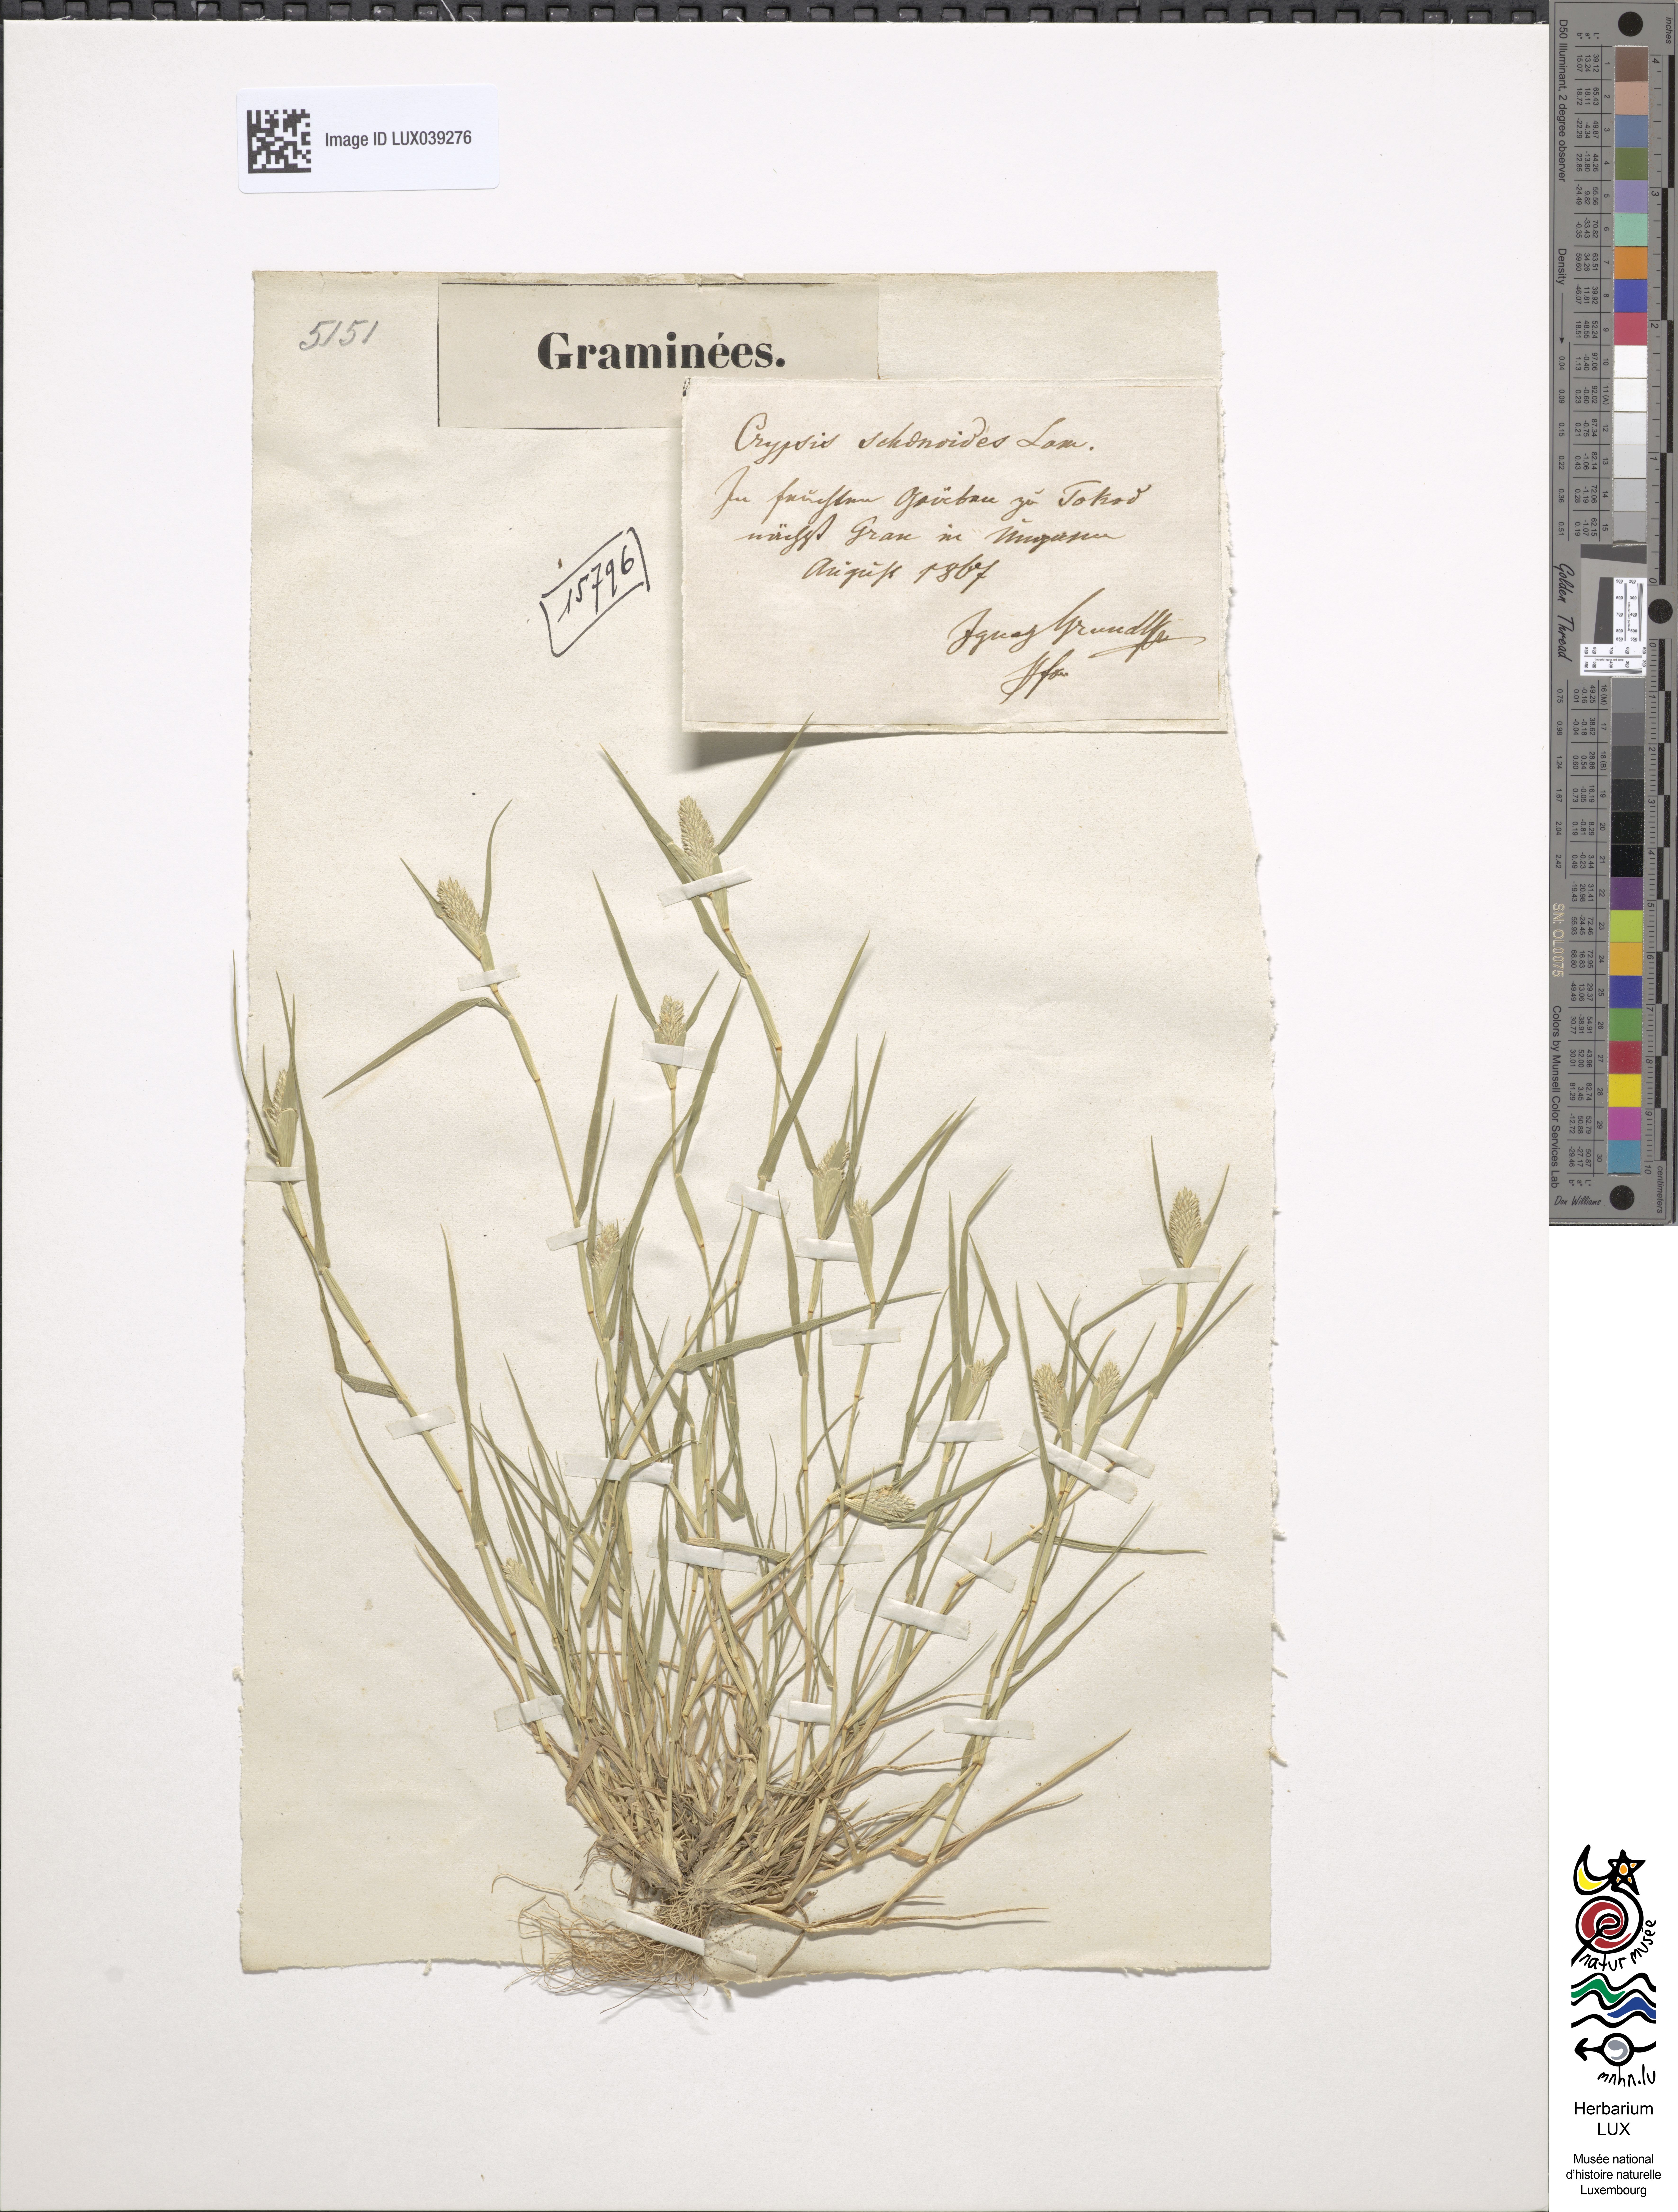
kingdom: Plantae
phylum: Tracheophyta
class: Liliopsida
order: Poales
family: Poaceae
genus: Sporobolus
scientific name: Sporobolus schoenoides
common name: Rush-like timothy
